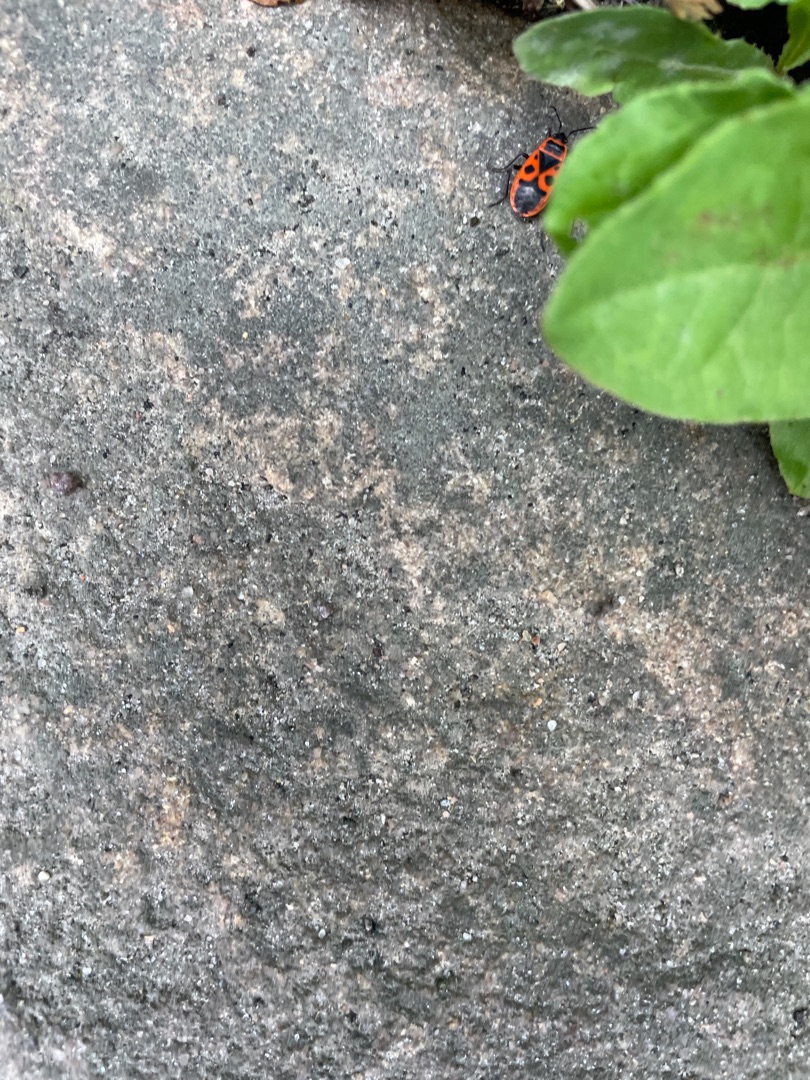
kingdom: Animalia
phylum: Arthropoda
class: Insecta
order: Hemiptera
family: Pyrrhocoridae
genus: Pyrrhocoris
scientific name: Pyrrhocoris apterus
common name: Ildtæge
